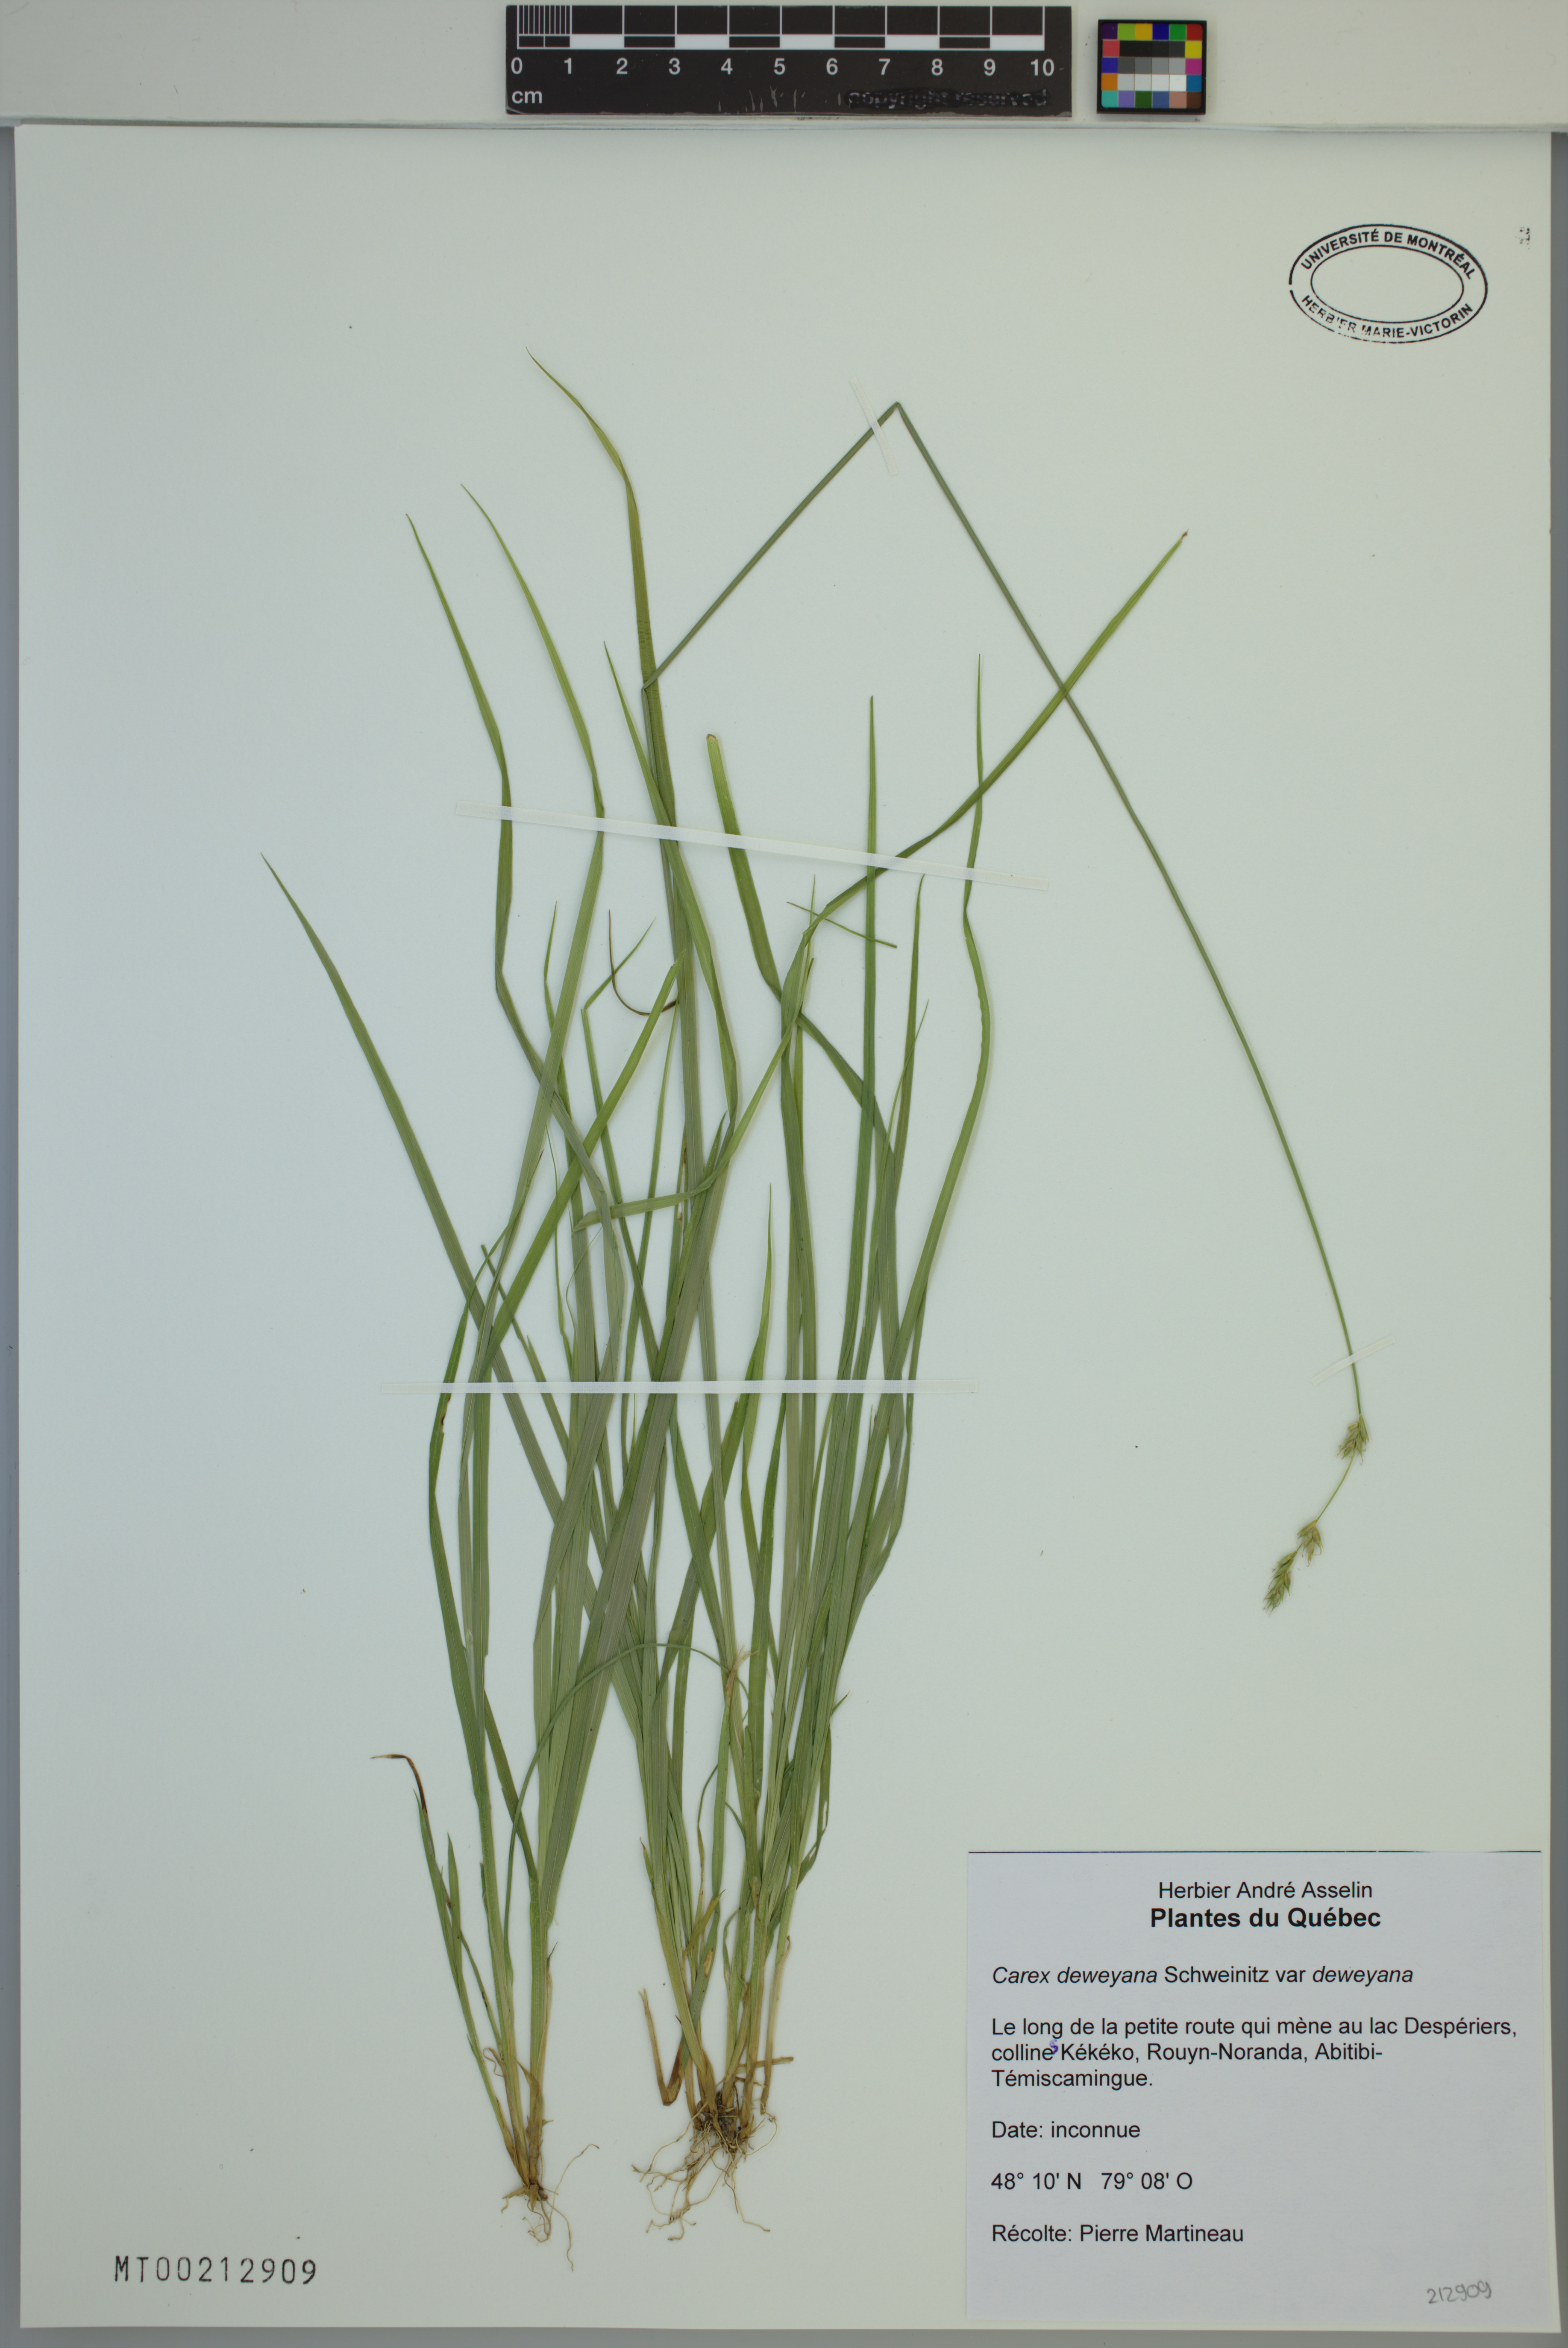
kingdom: Plantae
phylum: Tracheophyta
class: Liliopsida
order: Poales
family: Cyperaceae
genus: Carex
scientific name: Carex deweyana
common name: Dewey's sedge
